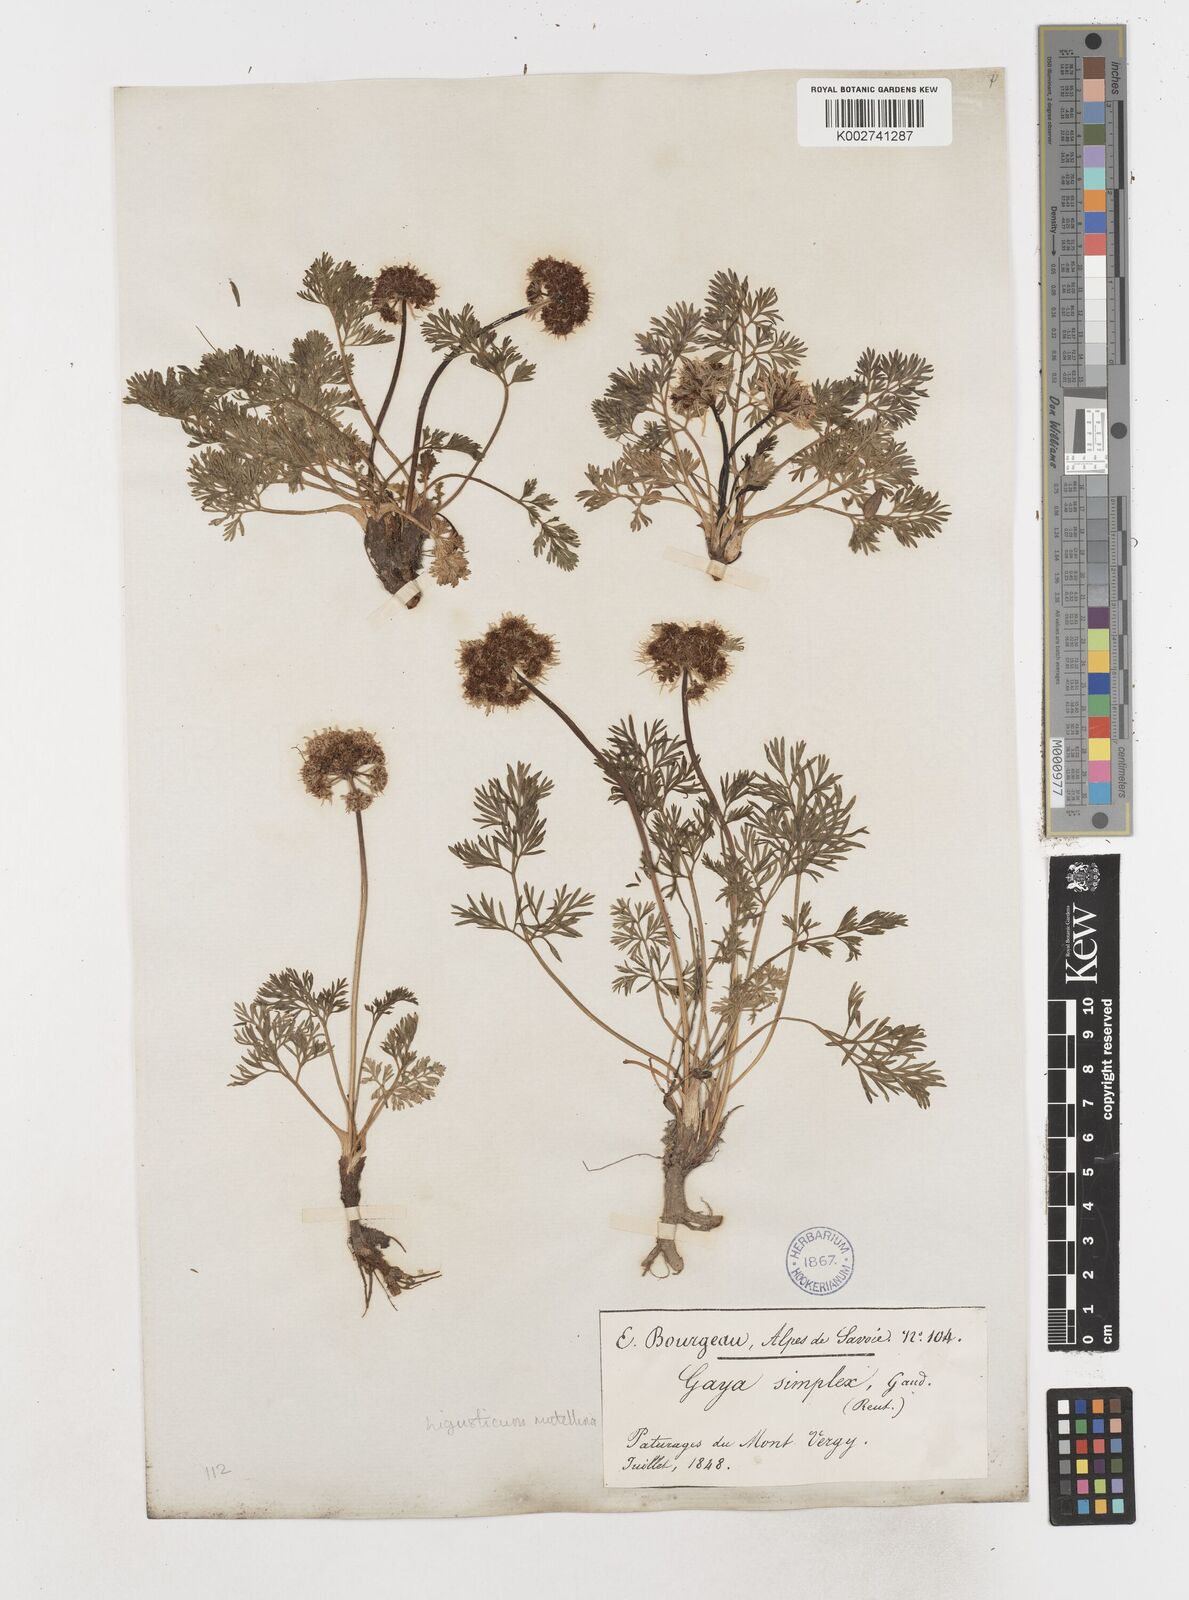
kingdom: Plantae
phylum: Tracheophyta
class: Magnoliopsida
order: Apiales
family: Apiaceae
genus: Mutellina
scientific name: Mutellina adonidifolia
